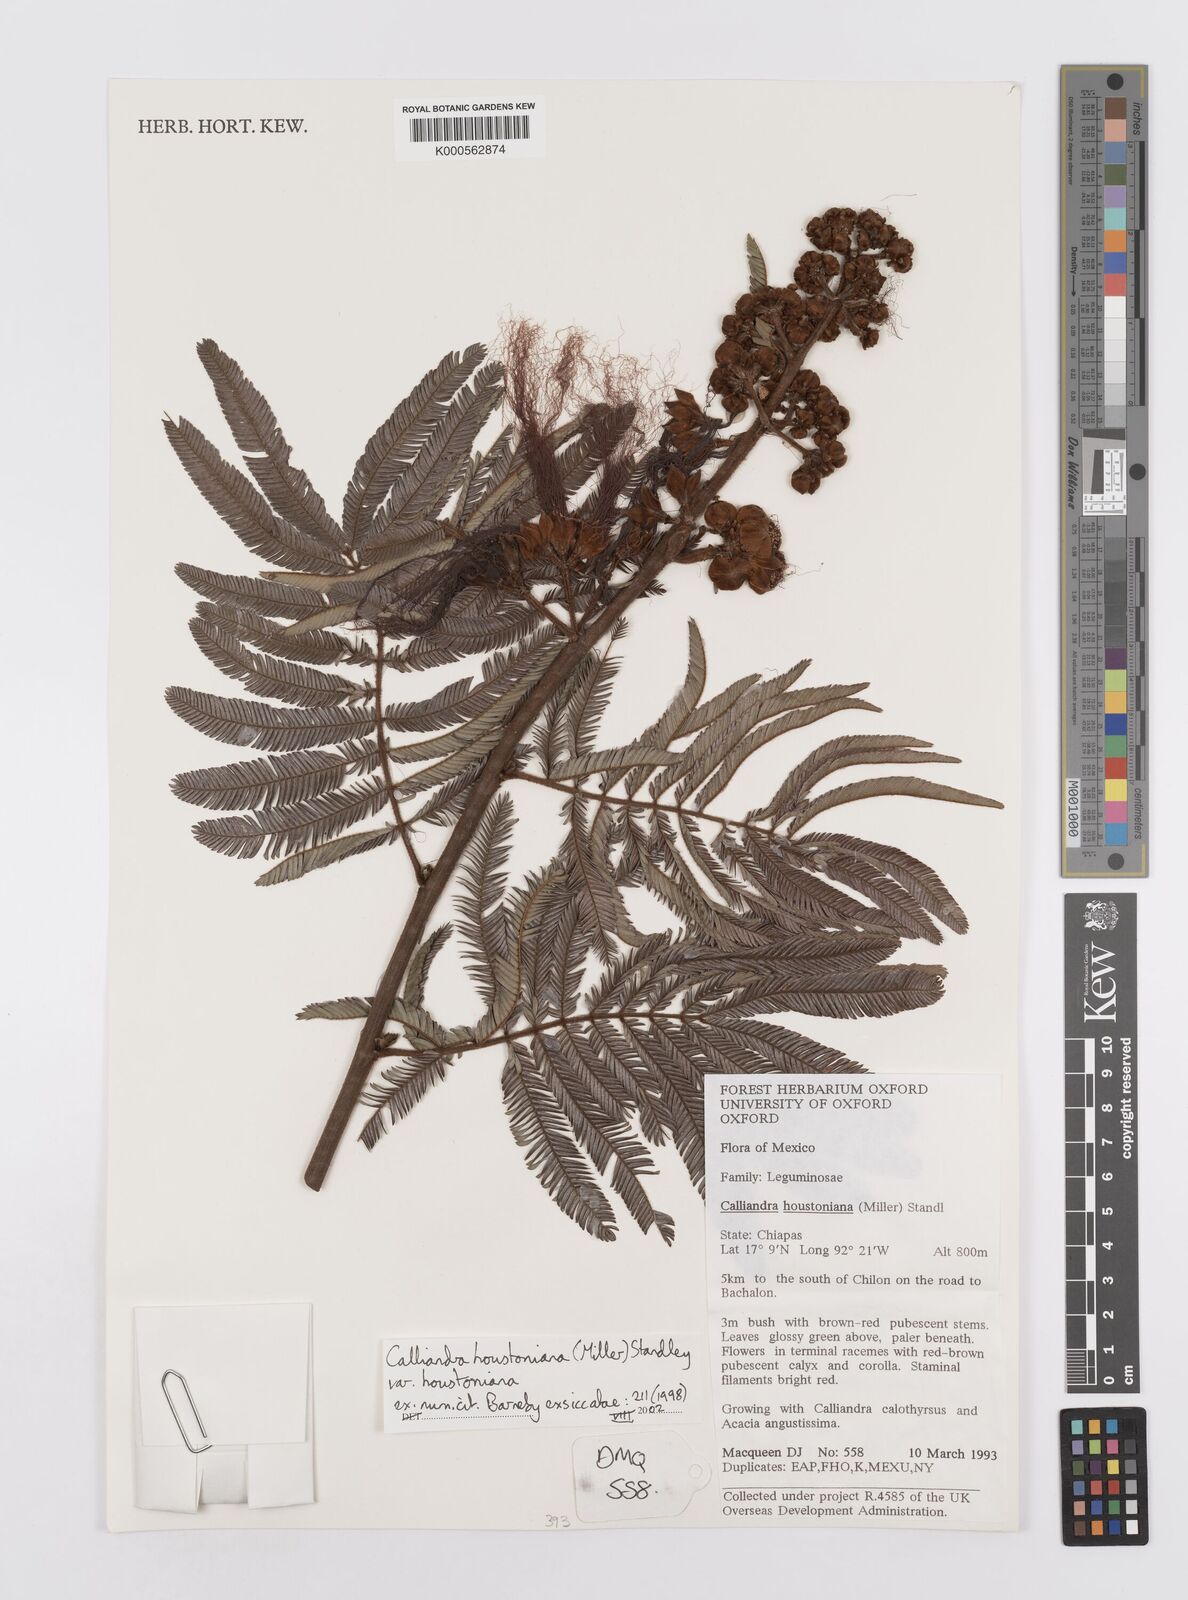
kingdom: Plantae
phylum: Tracheophyta
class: Magnoliopsida
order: Fabales
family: Fabaceae
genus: Calliandra
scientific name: Calliandra houstoniana
